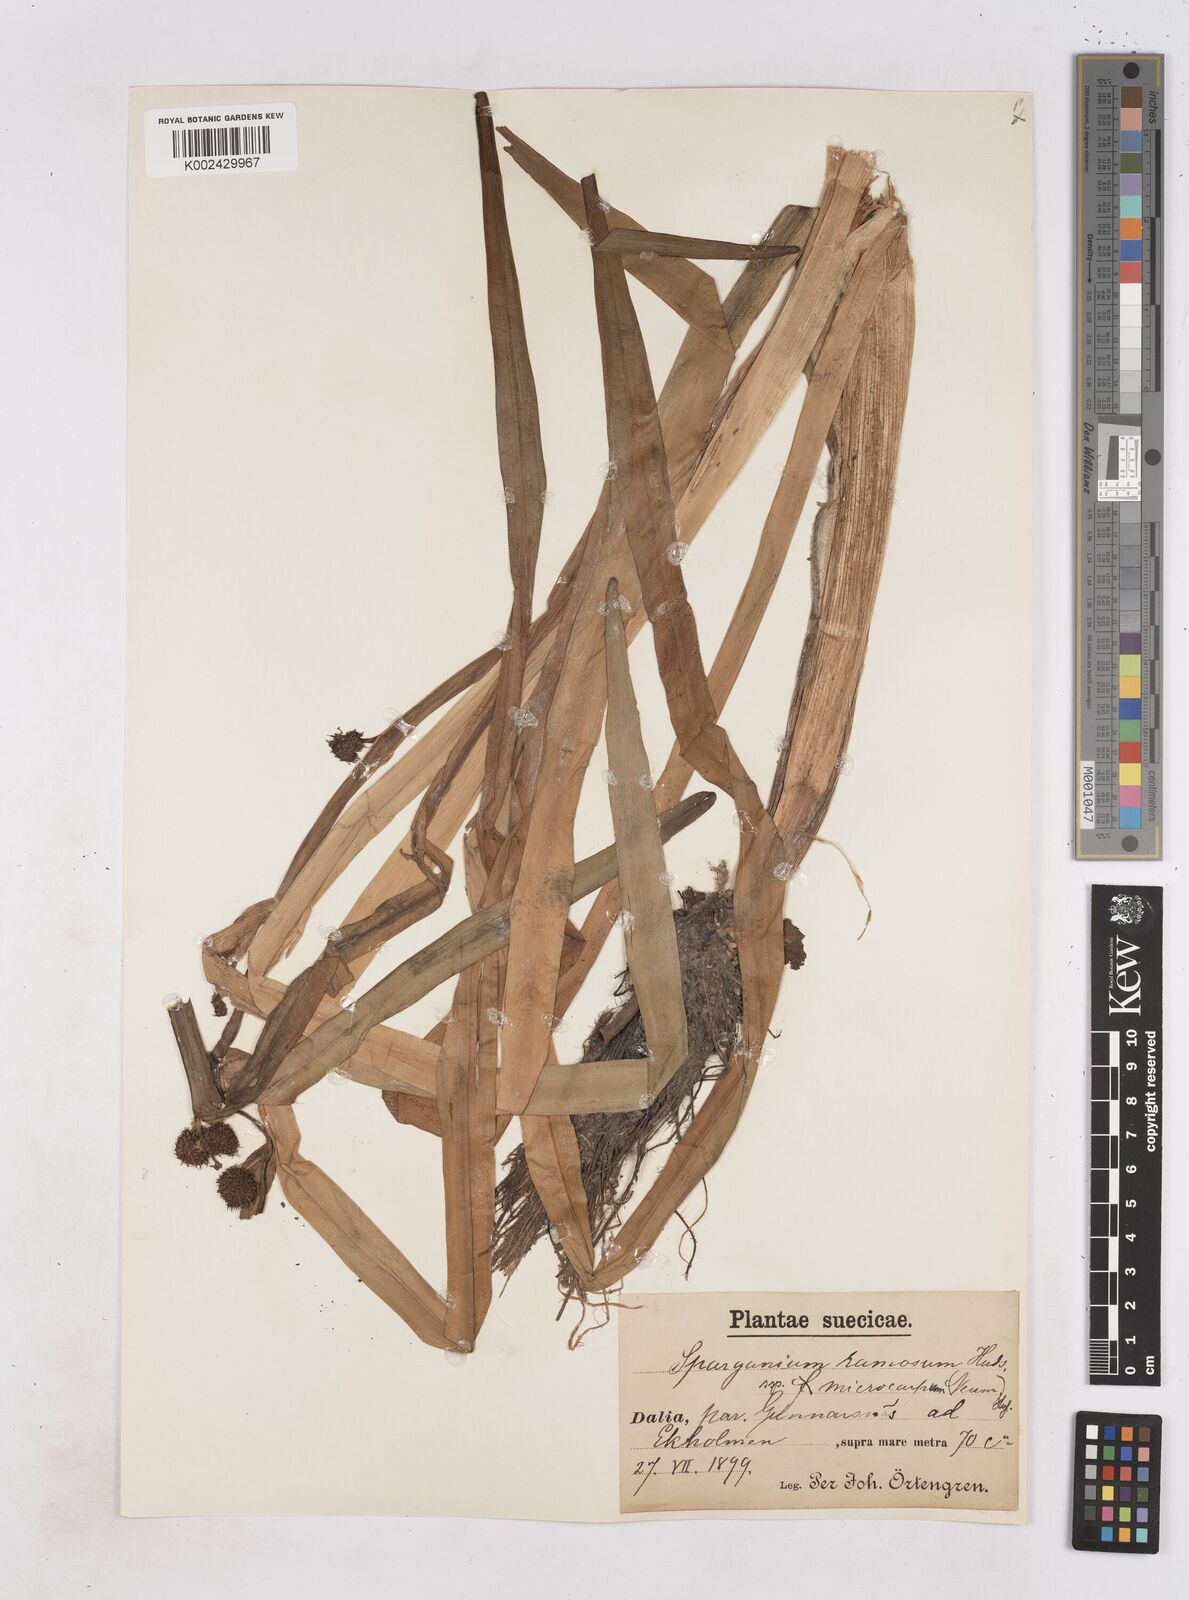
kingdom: Plantae
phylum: Tracheophyta
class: Liliopsida
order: Poales
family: Typhaceae
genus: Sparganium
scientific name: Sparganium erectum
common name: Branched bur-reed
